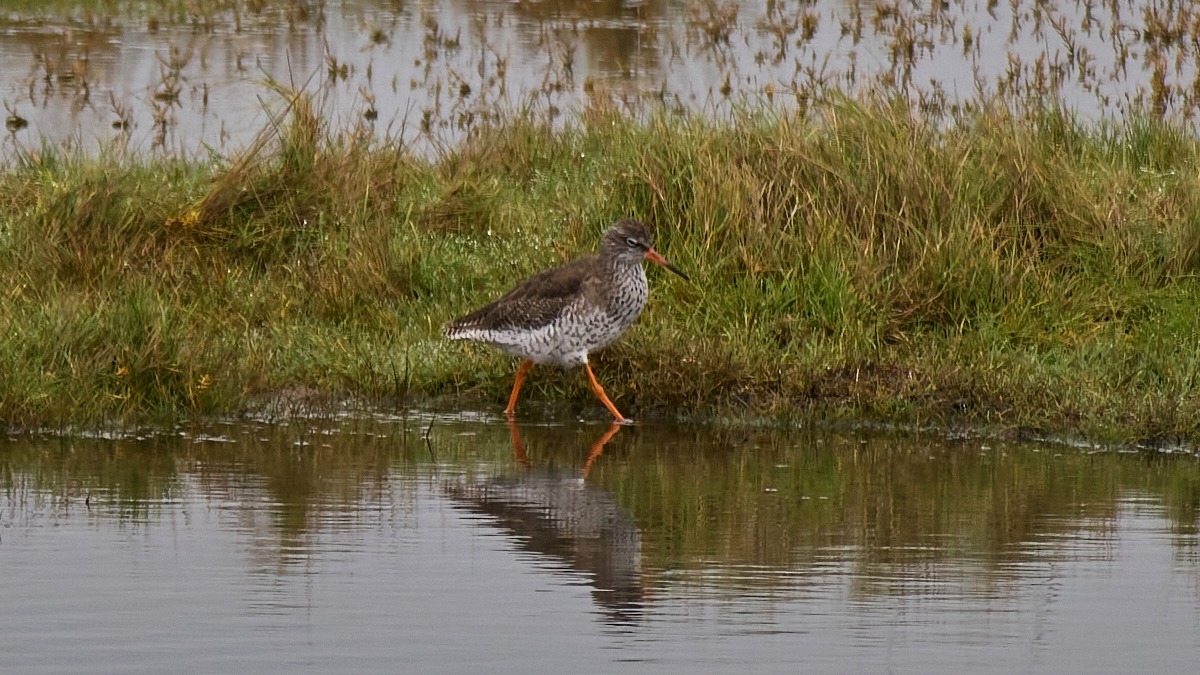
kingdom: Animalia
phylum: Chordata
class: Aves
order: Charadriiformes
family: Scolopacidae
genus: Tringa
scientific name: Tringa totanus
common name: Rødben
